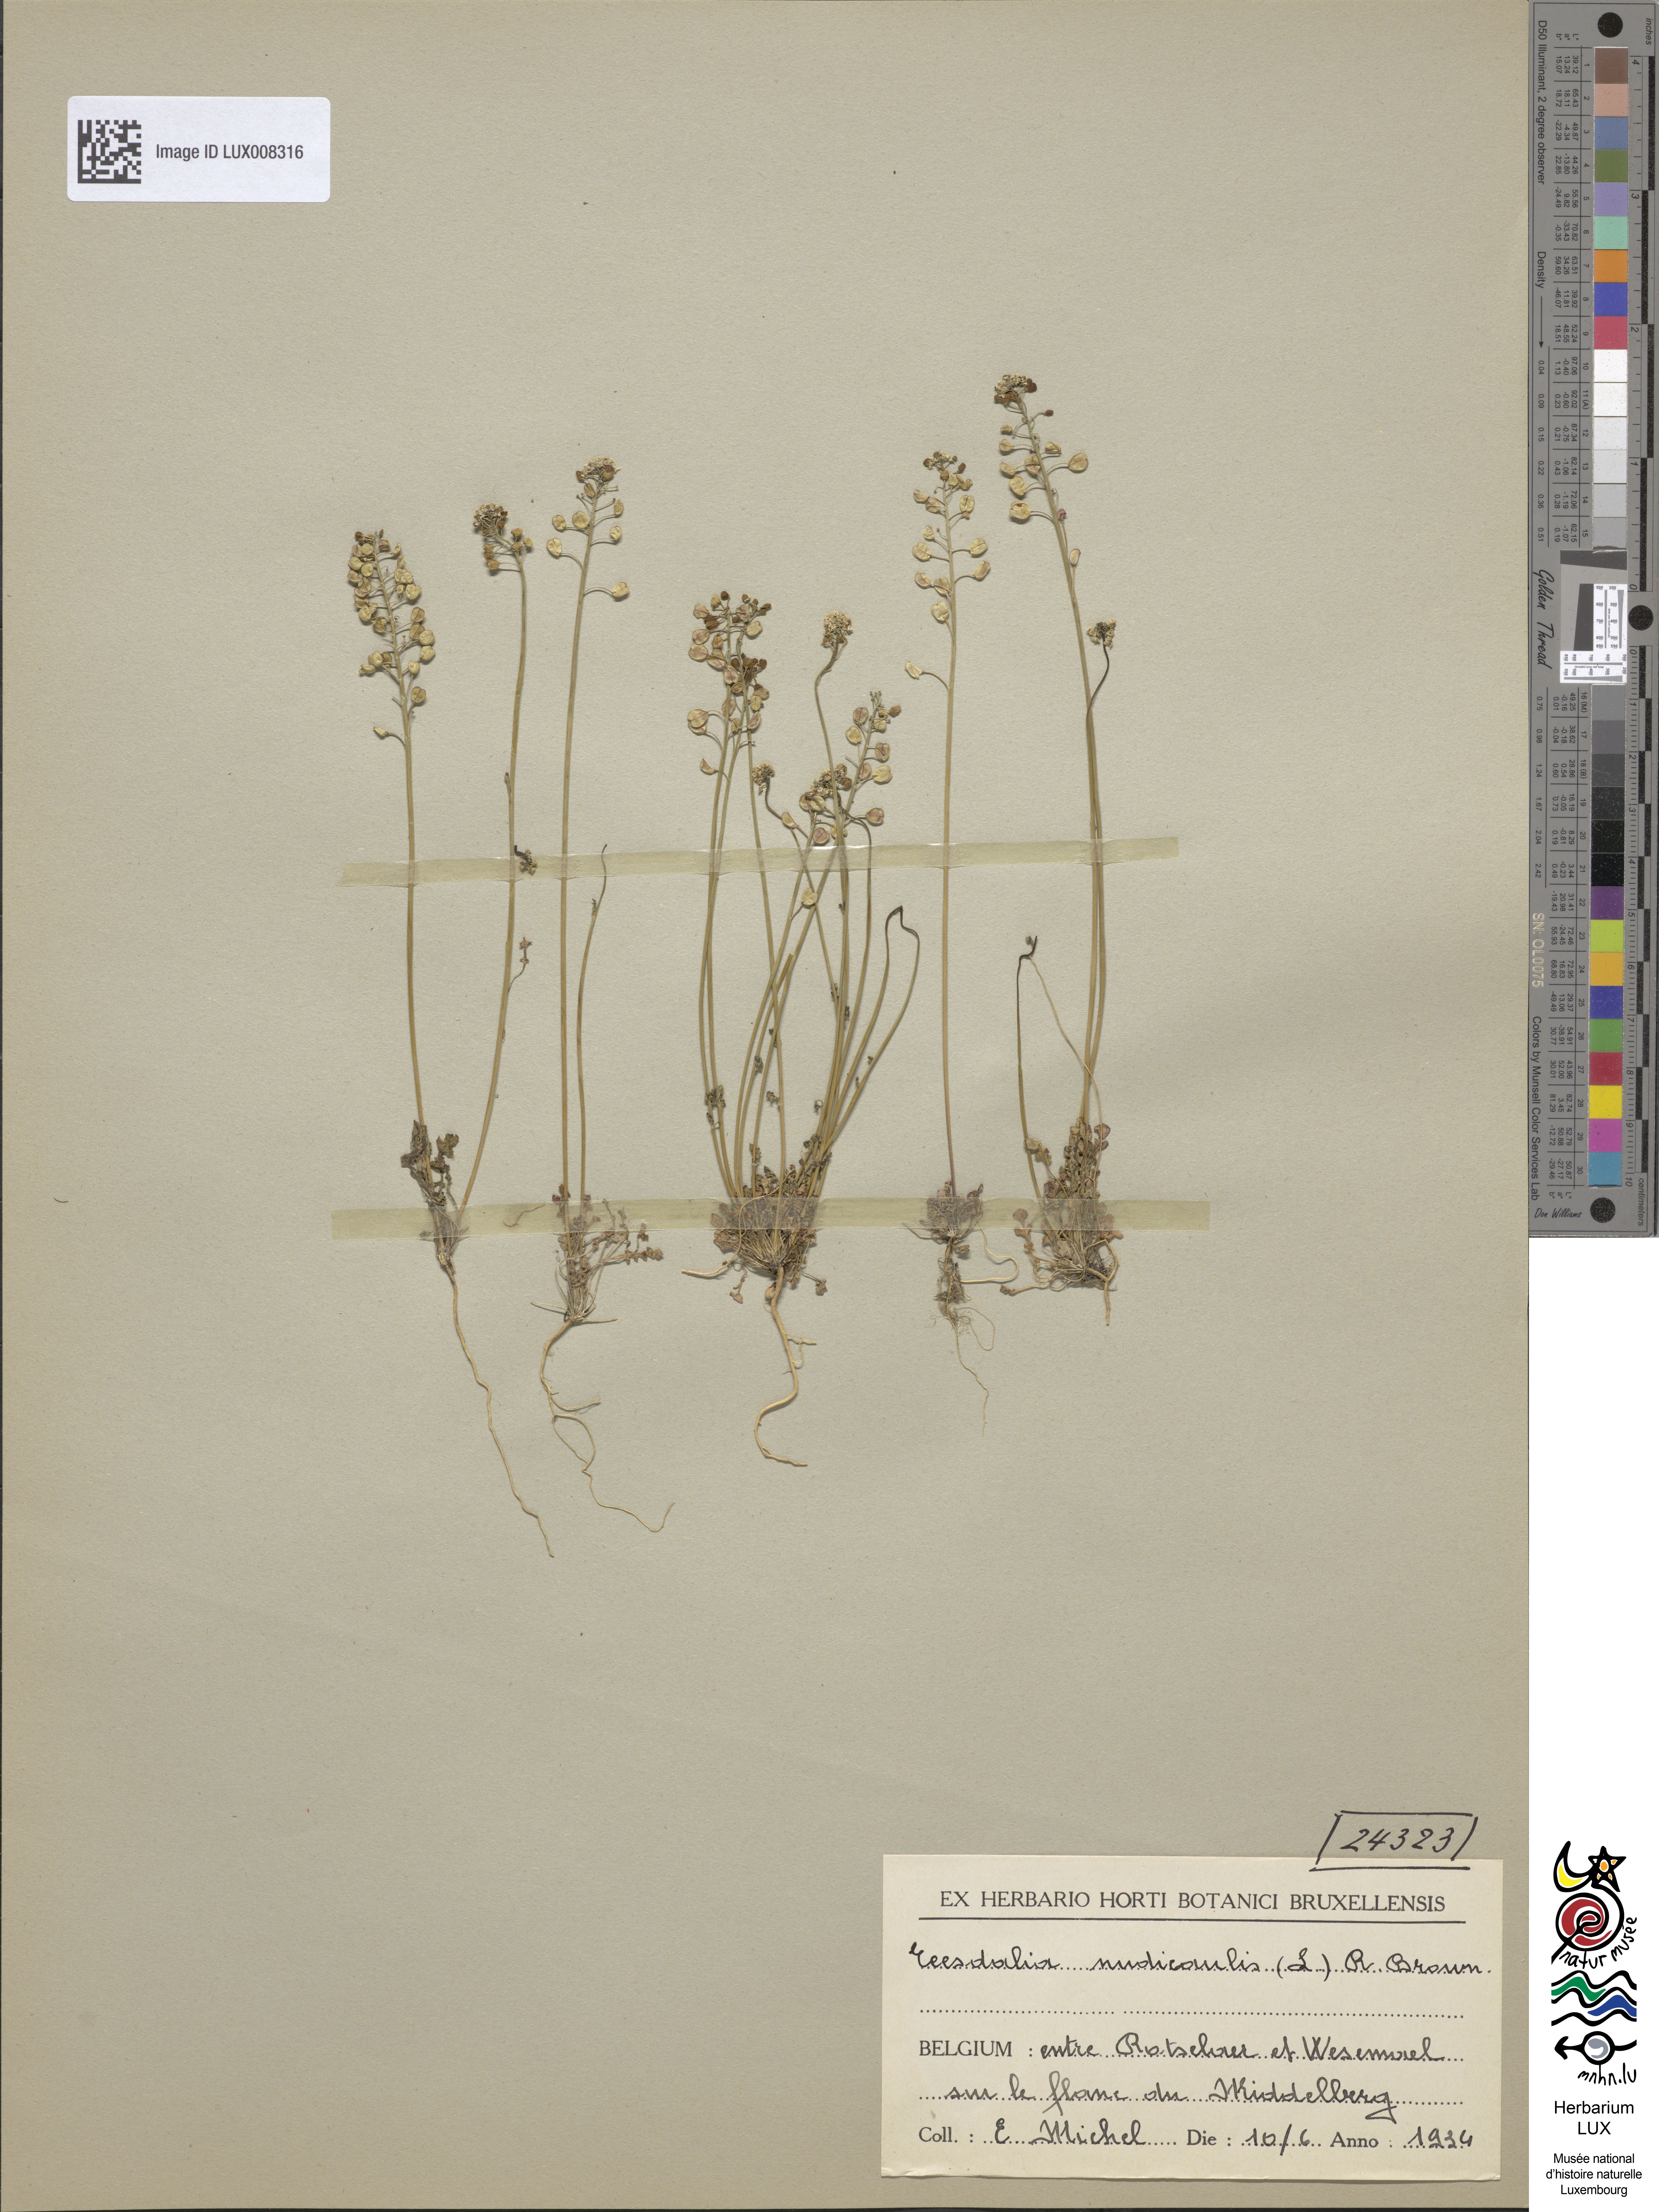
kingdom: Plantae
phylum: Tracheophyta
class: Magnoliopsida
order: Brassicales
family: Brassicaceae
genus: Teesdalia
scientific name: Teesdalia nudicaulis
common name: Shepherd's cress
